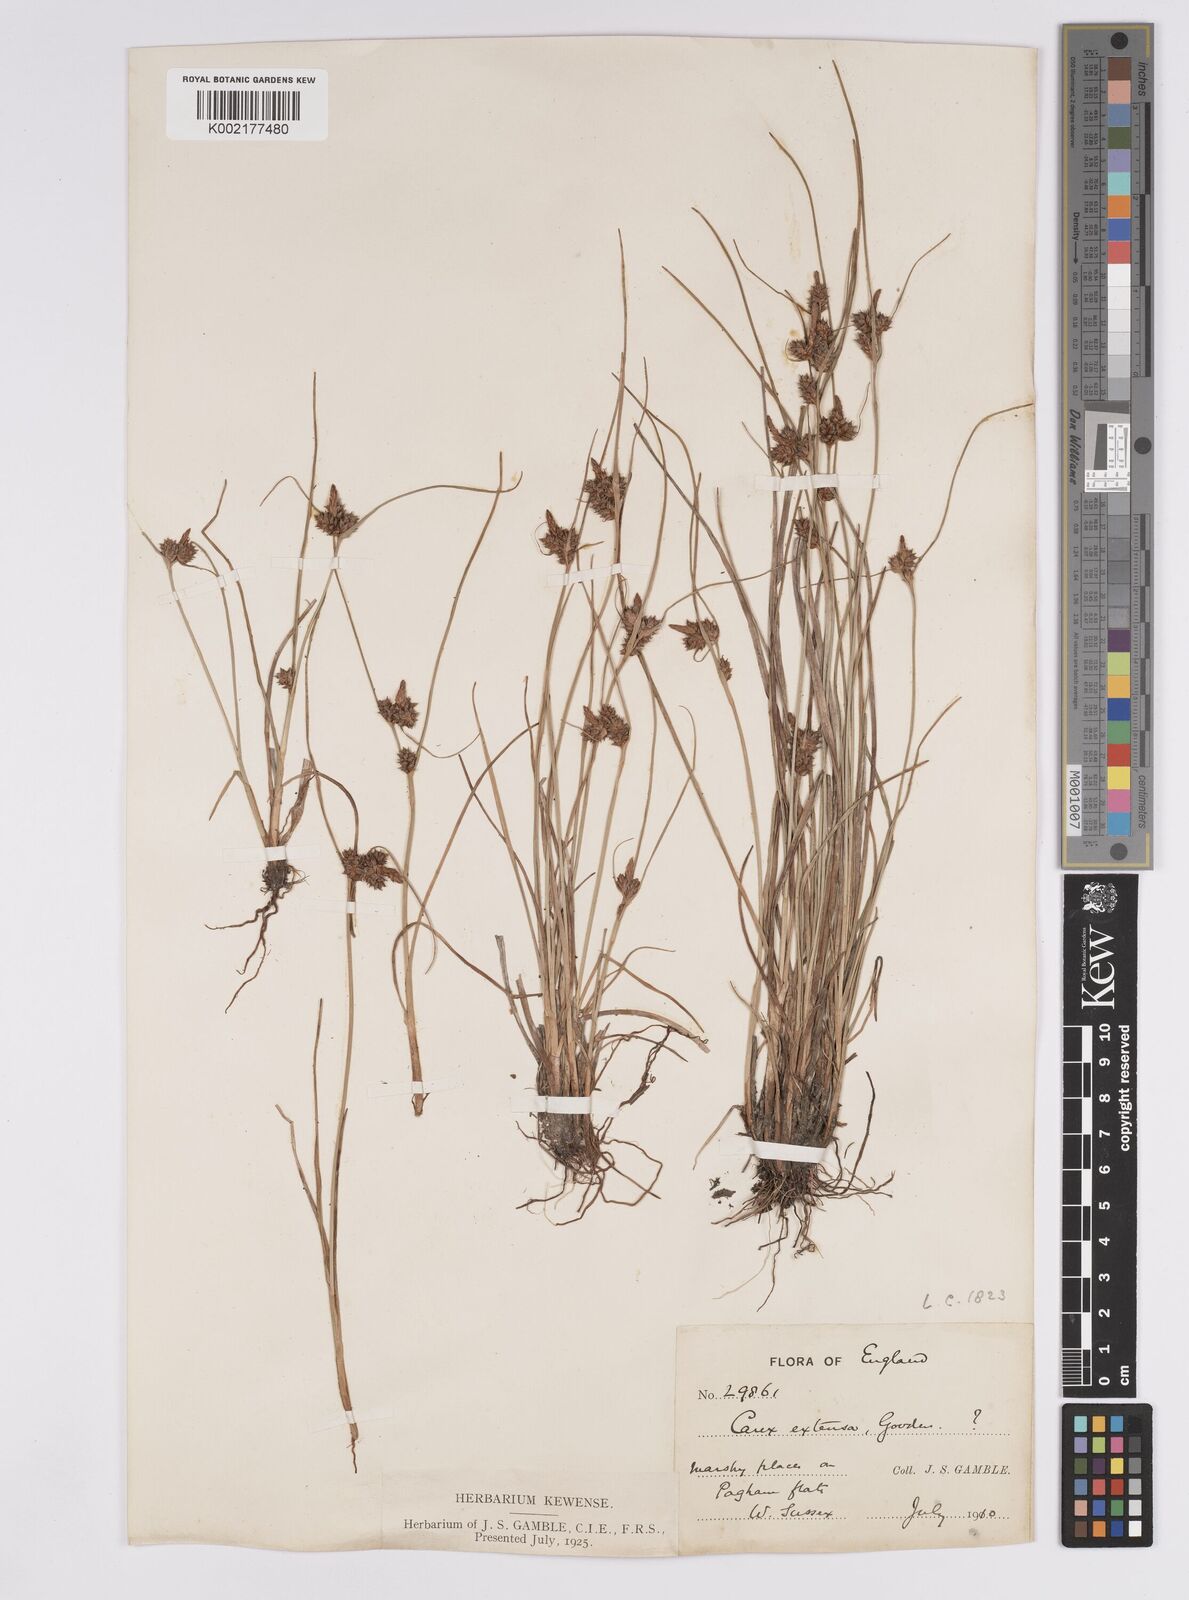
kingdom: Plantae
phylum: Tracheophyta
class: Liliopsida
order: Poales
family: Cyperaceae
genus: Carex
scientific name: Carex extensa
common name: Long-bracted sedge
